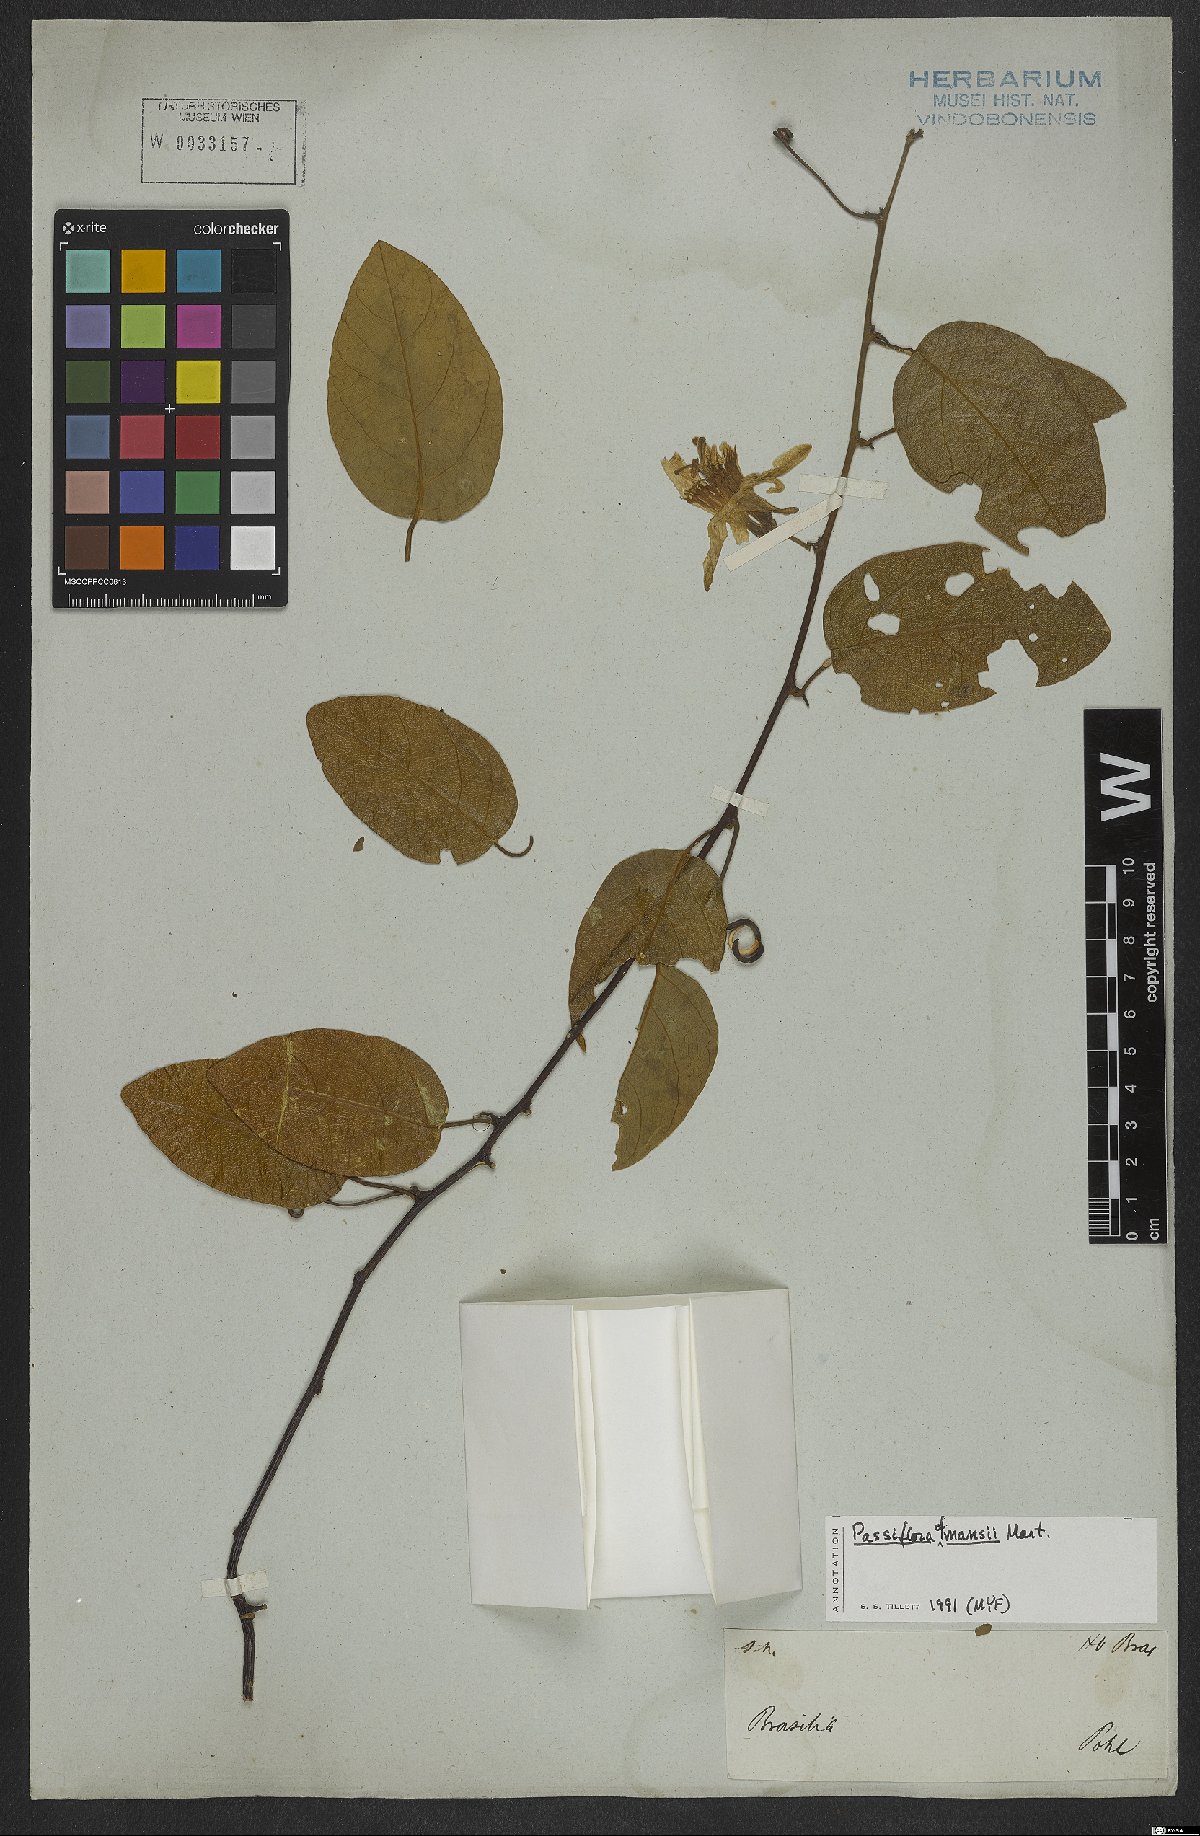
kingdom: Plantae
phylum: Tracheophyta
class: Magnoliopsida
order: Malpighiales
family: Passifloraceae
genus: Passiflora
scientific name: Passiflora mansoi
